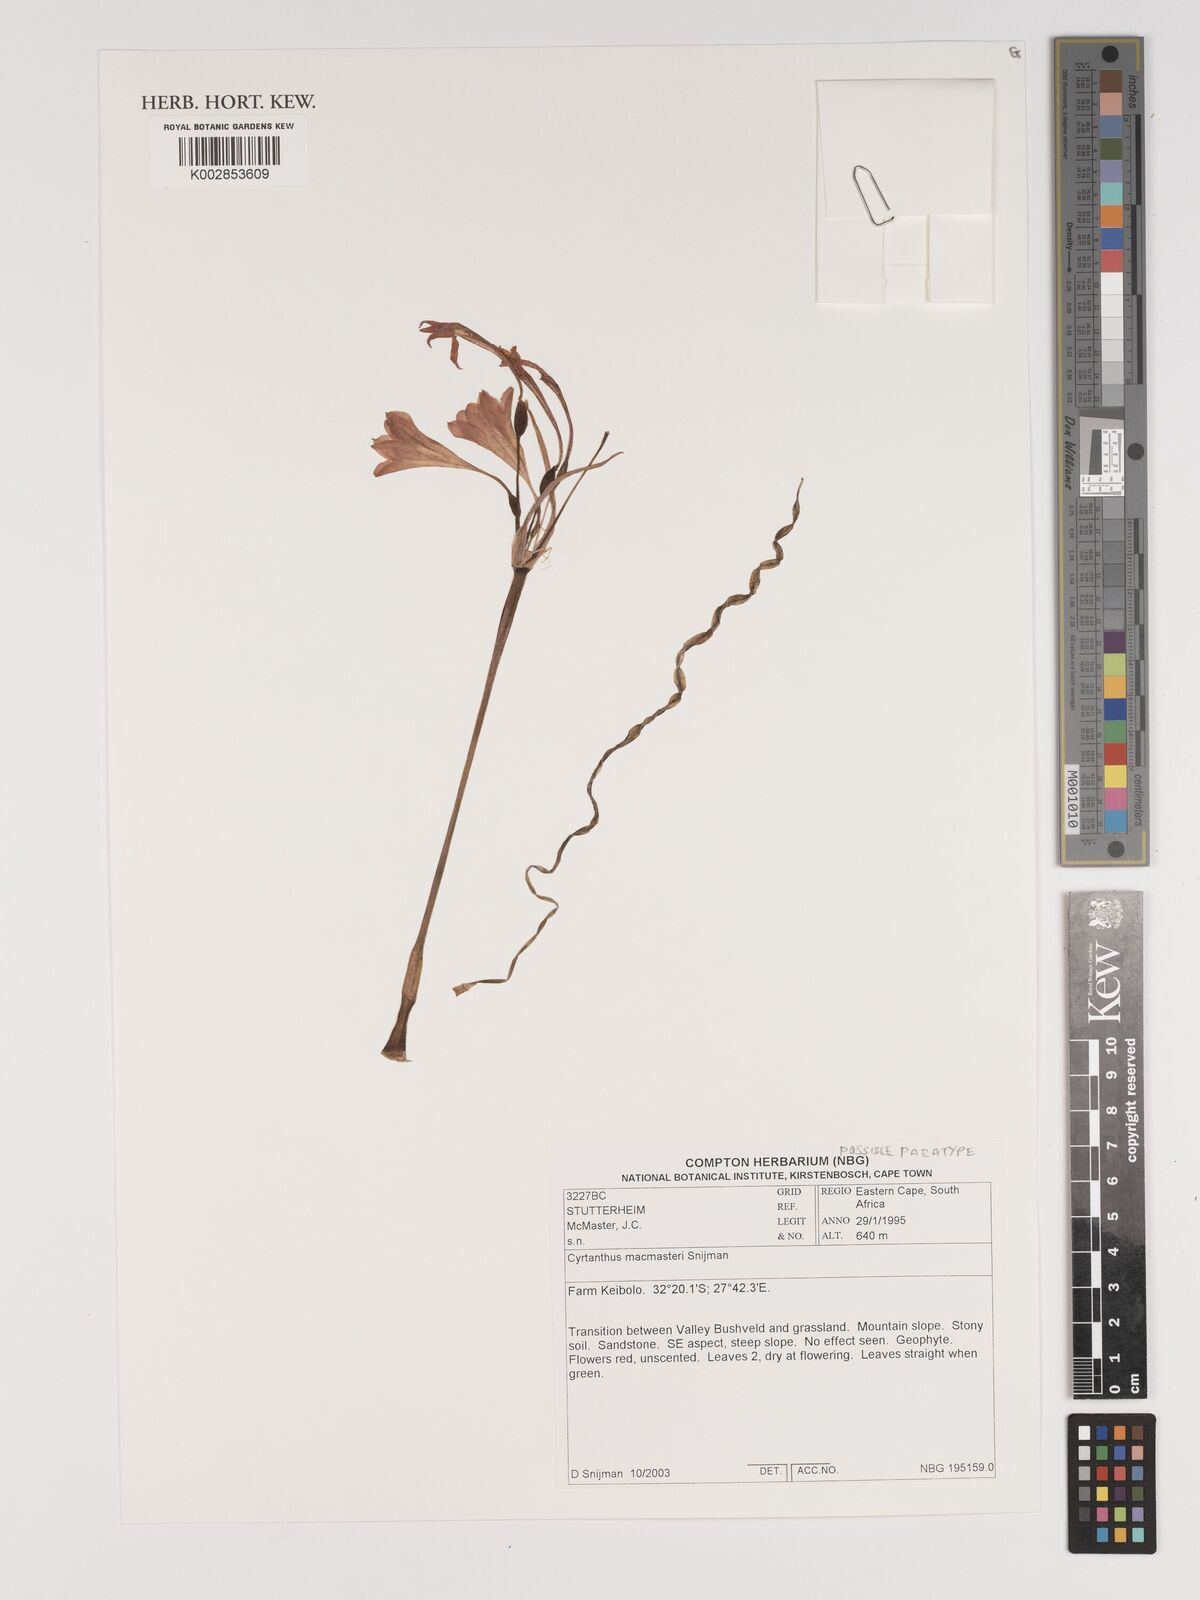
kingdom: Plantae
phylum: Tracheophyta
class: Liliopsida
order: Asparagales
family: Amaryllidaceae
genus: Cyrtanthus
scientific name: Cyrtanthus macmasteri
